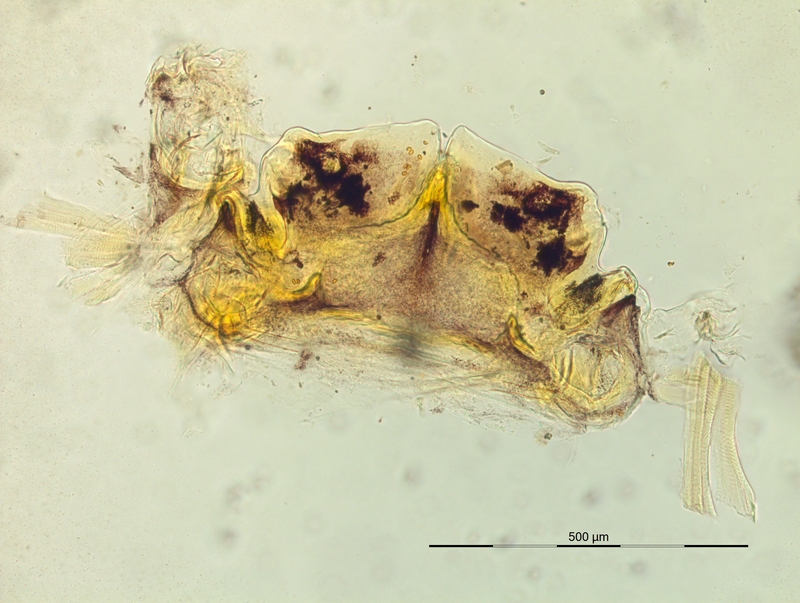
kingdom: Animalia
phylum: Arthropoda
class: Diplopoda
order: Chordeumatida
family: Craspedosomatidae
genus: Helvetiosoma
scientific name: Helvetiosoma helveticum
